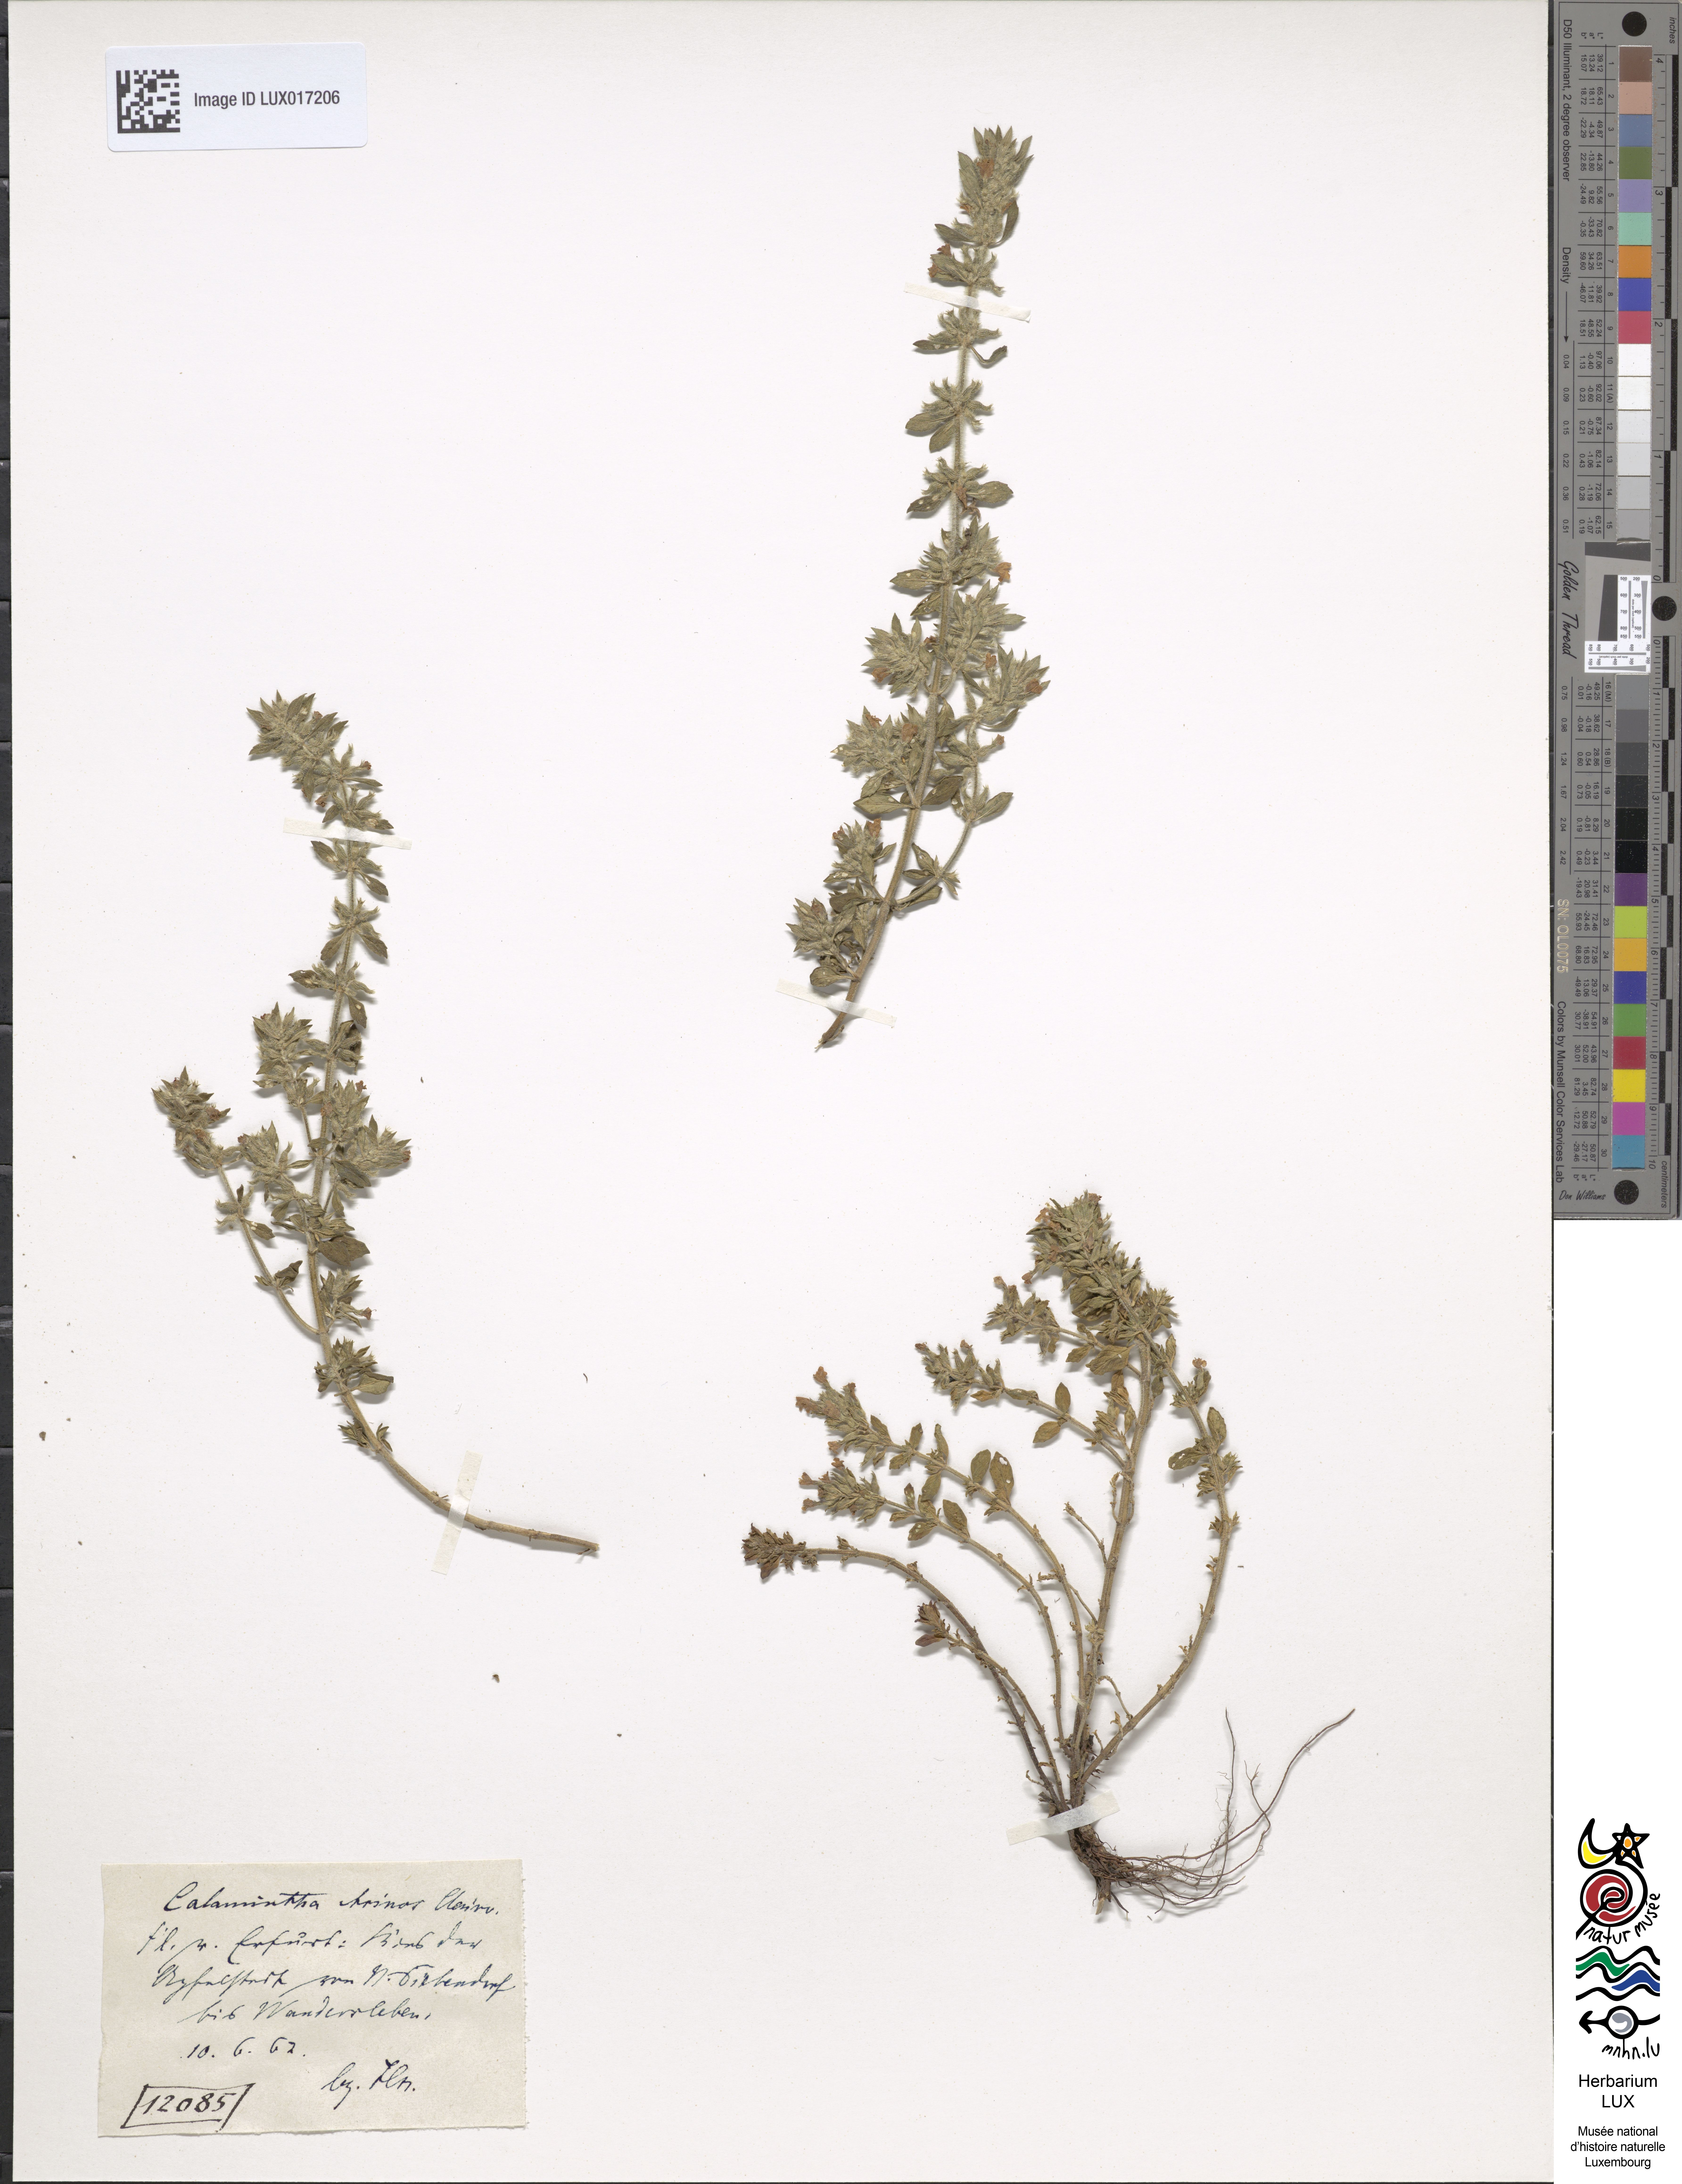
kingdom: Plantae
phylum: Tracheophyta
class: Magnoliopsida
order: Lamiales
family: Lamiaceae
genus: Clinopodium
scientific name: Clinopodium acinos
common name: Basil thyme
